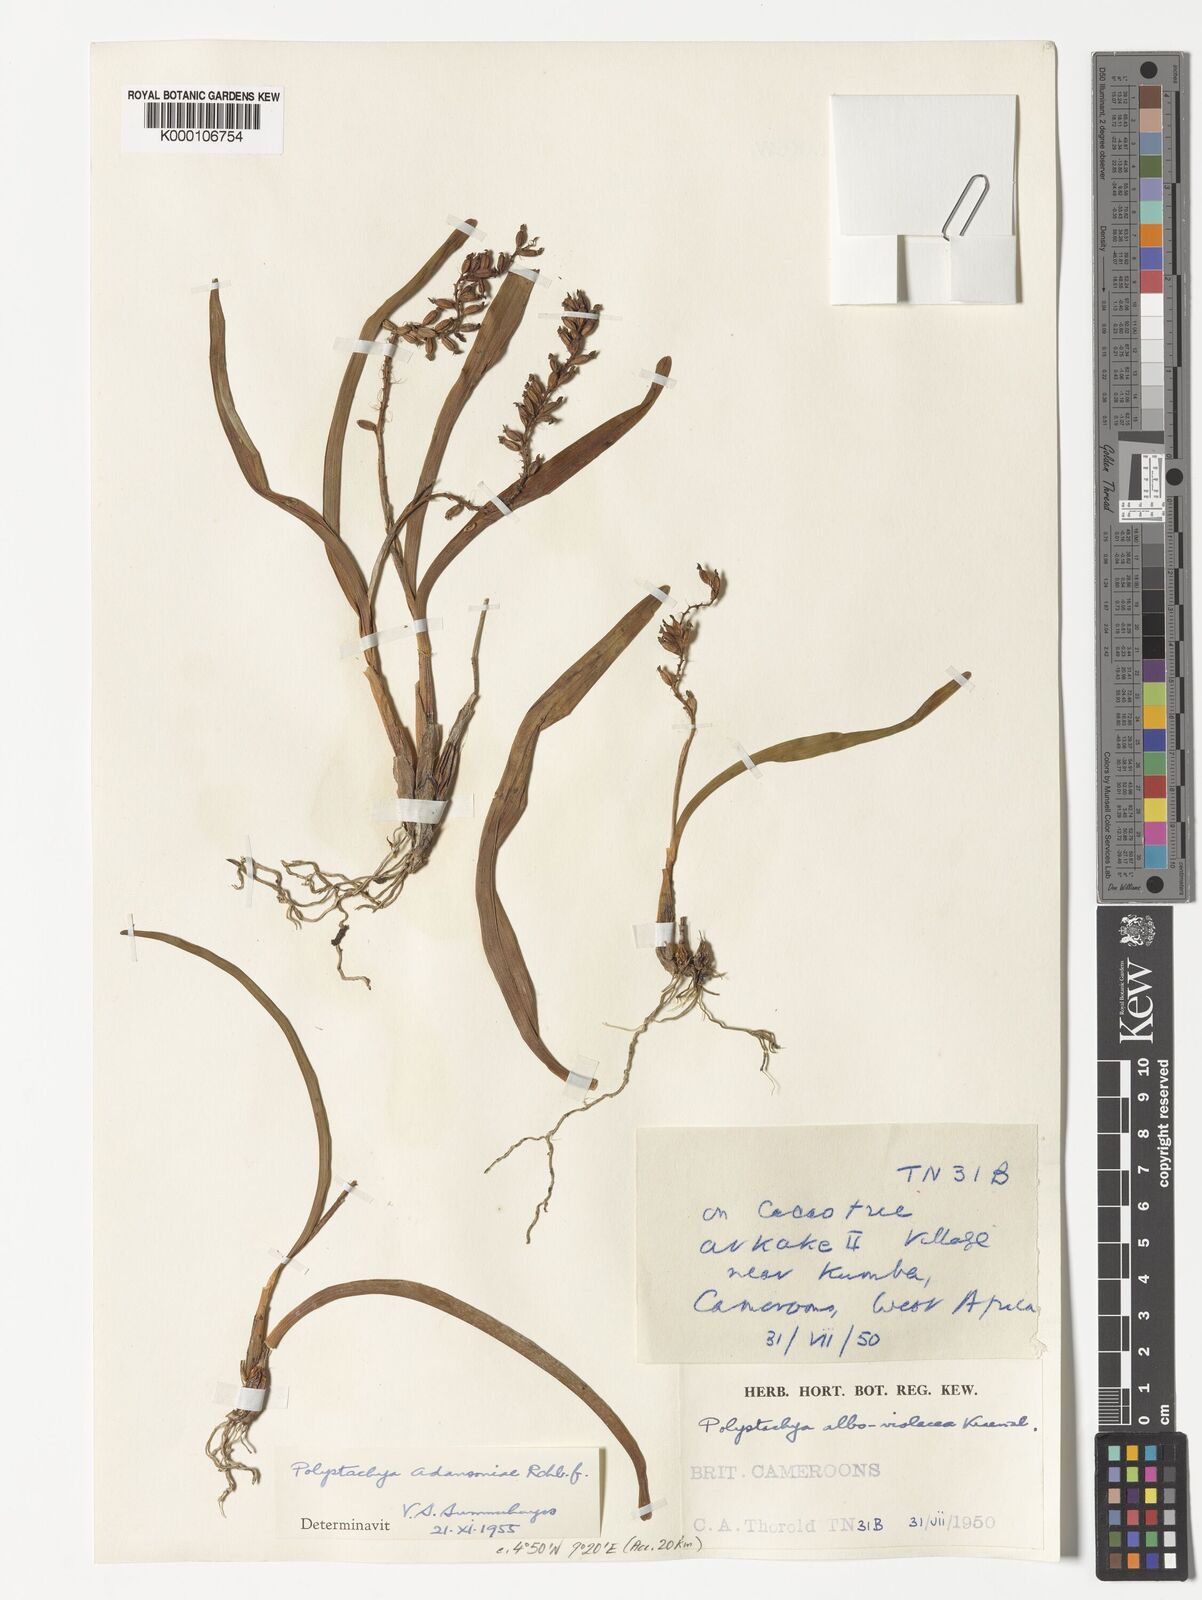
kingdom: Plantae
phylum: Tracheophyta
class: Liliopsida
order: Asparagales
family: Orchidaceae
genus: Polystachya
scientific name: Polystachya adansoniae
